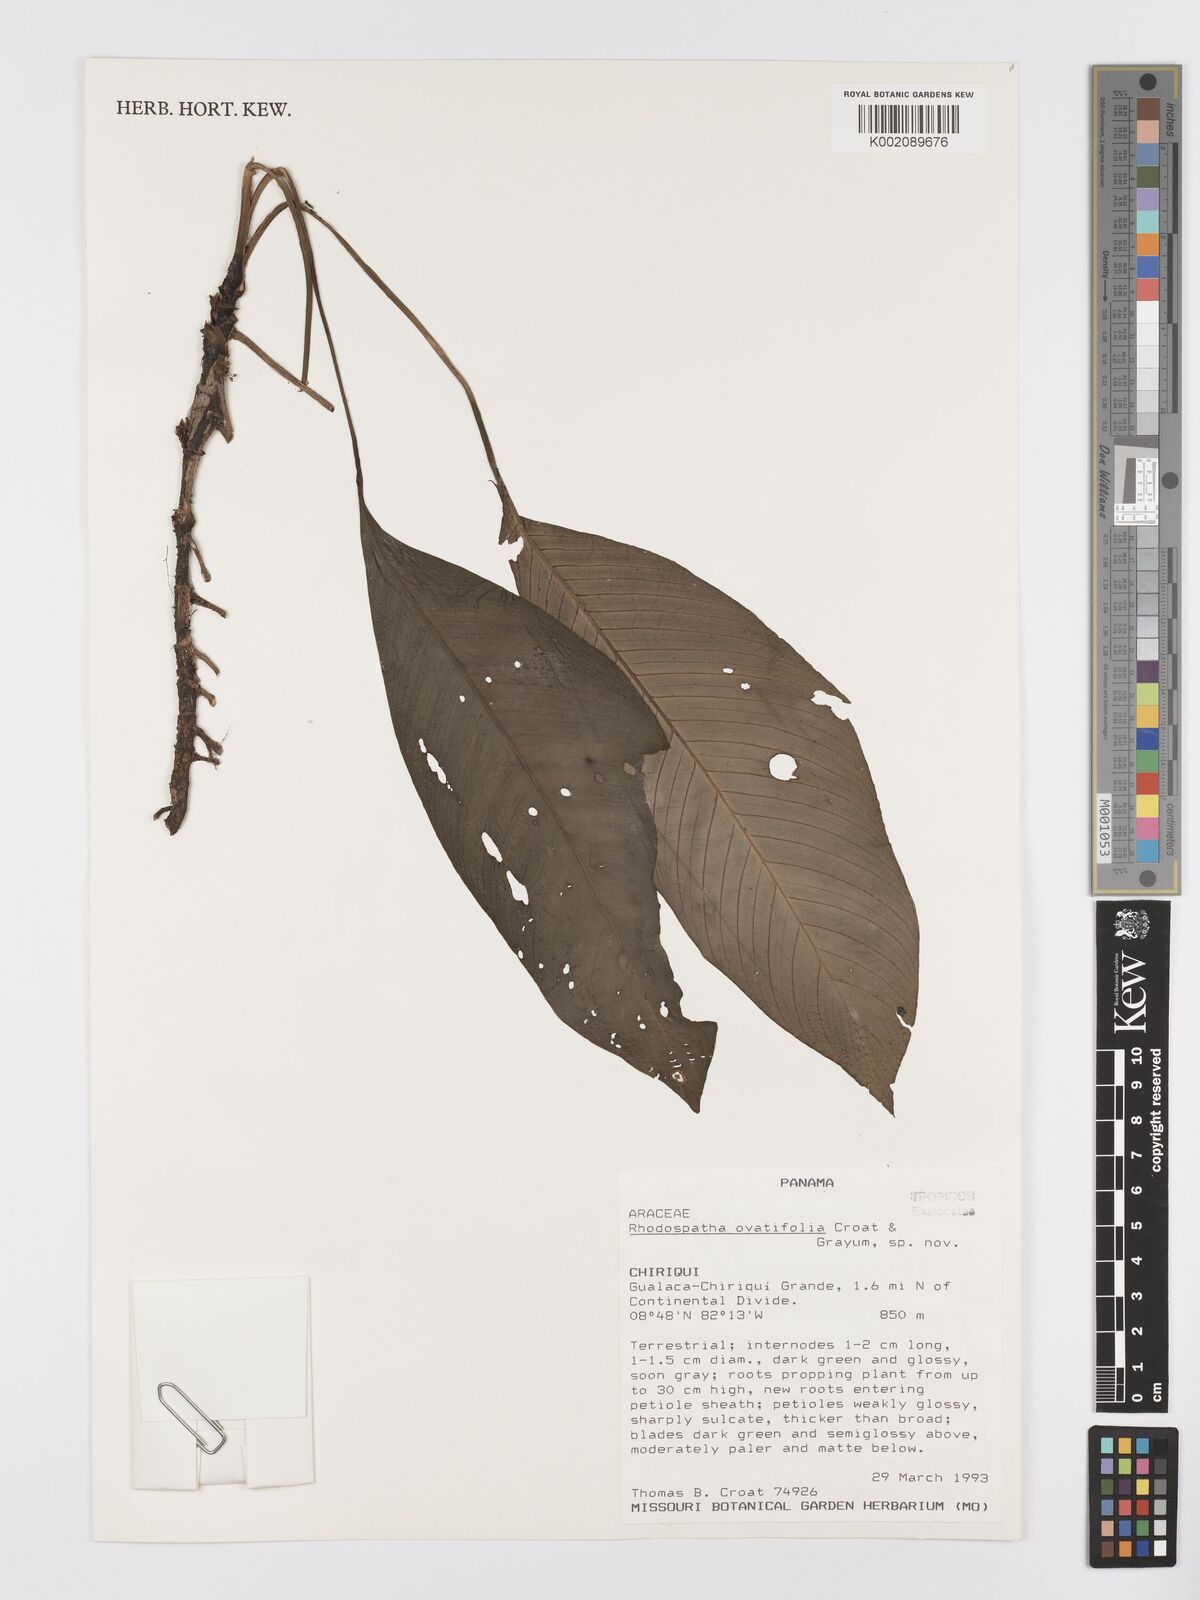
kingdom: Plantae
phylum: Tracheophyta
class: Liliopsida
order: Alismatales
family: Araceae
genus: Rhodospatha
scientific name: Rhodospatha
